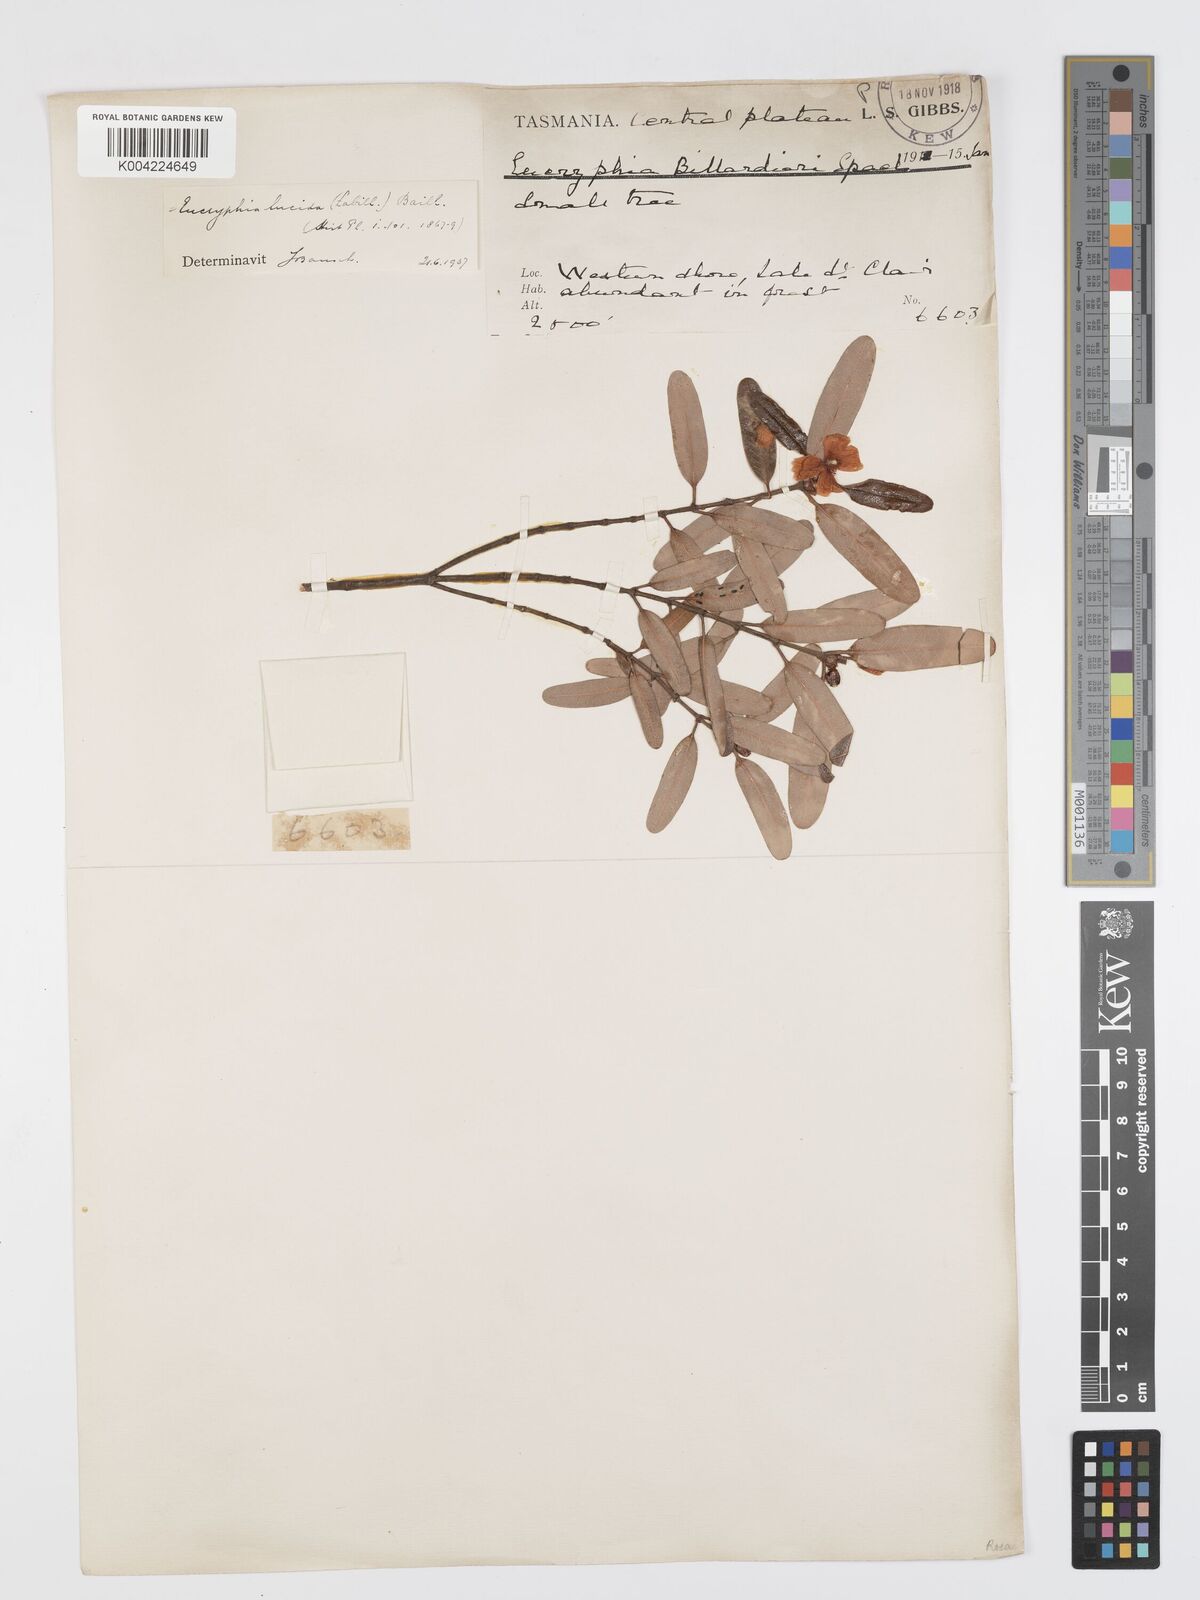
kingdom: Plantae
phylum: Tracheophyta
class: Magnoliopsida
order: Oxalidales
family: Cunoniaceae
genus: Eucryphia
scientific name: Eucryphia lucida
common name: Leatherwood
